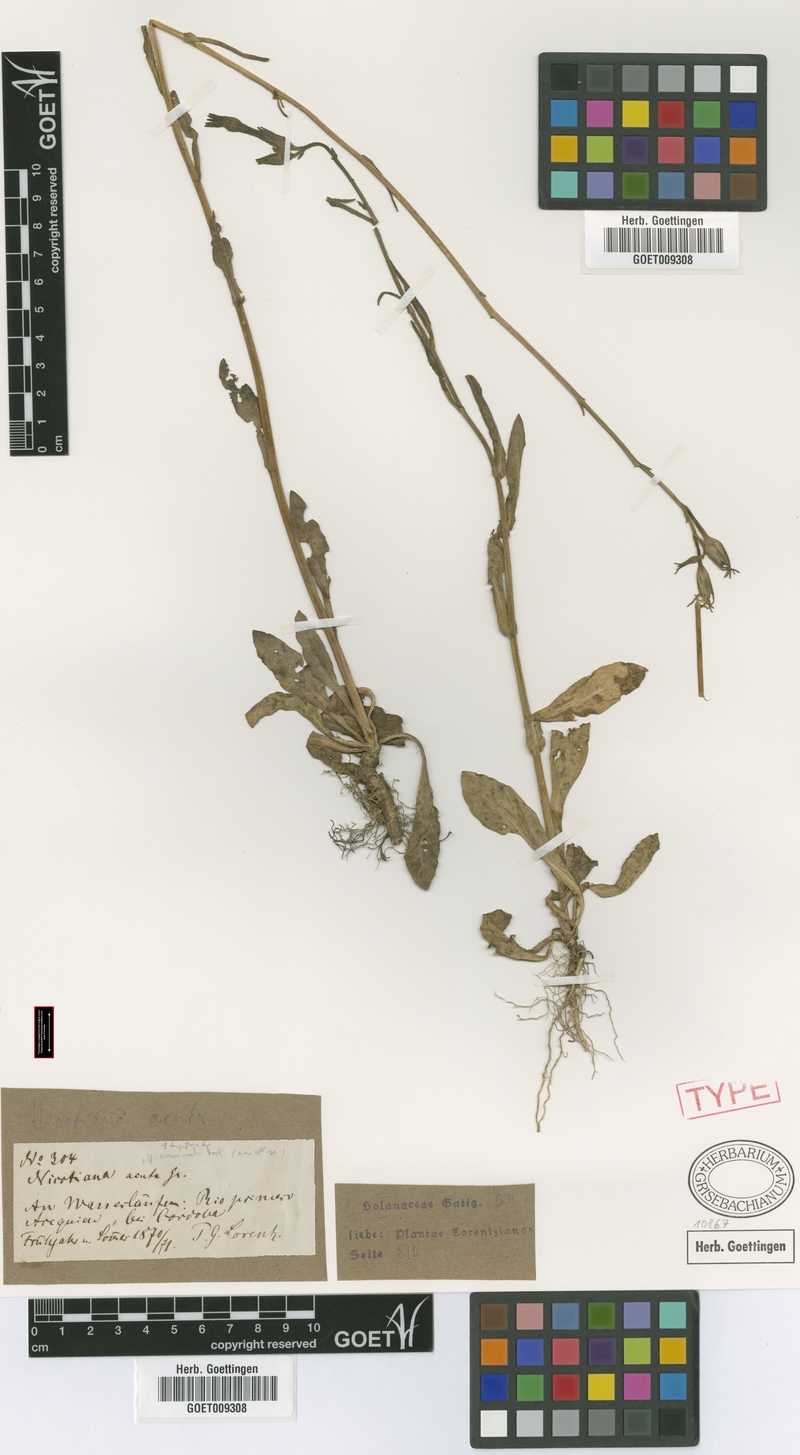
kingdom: Plantae
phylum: Tracheophyta
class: Magnoliopsida
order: Solanales
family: Solanaceae
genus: Nicotiana
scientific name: Nicotiana longiflora
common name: Long-flowered tobacco
